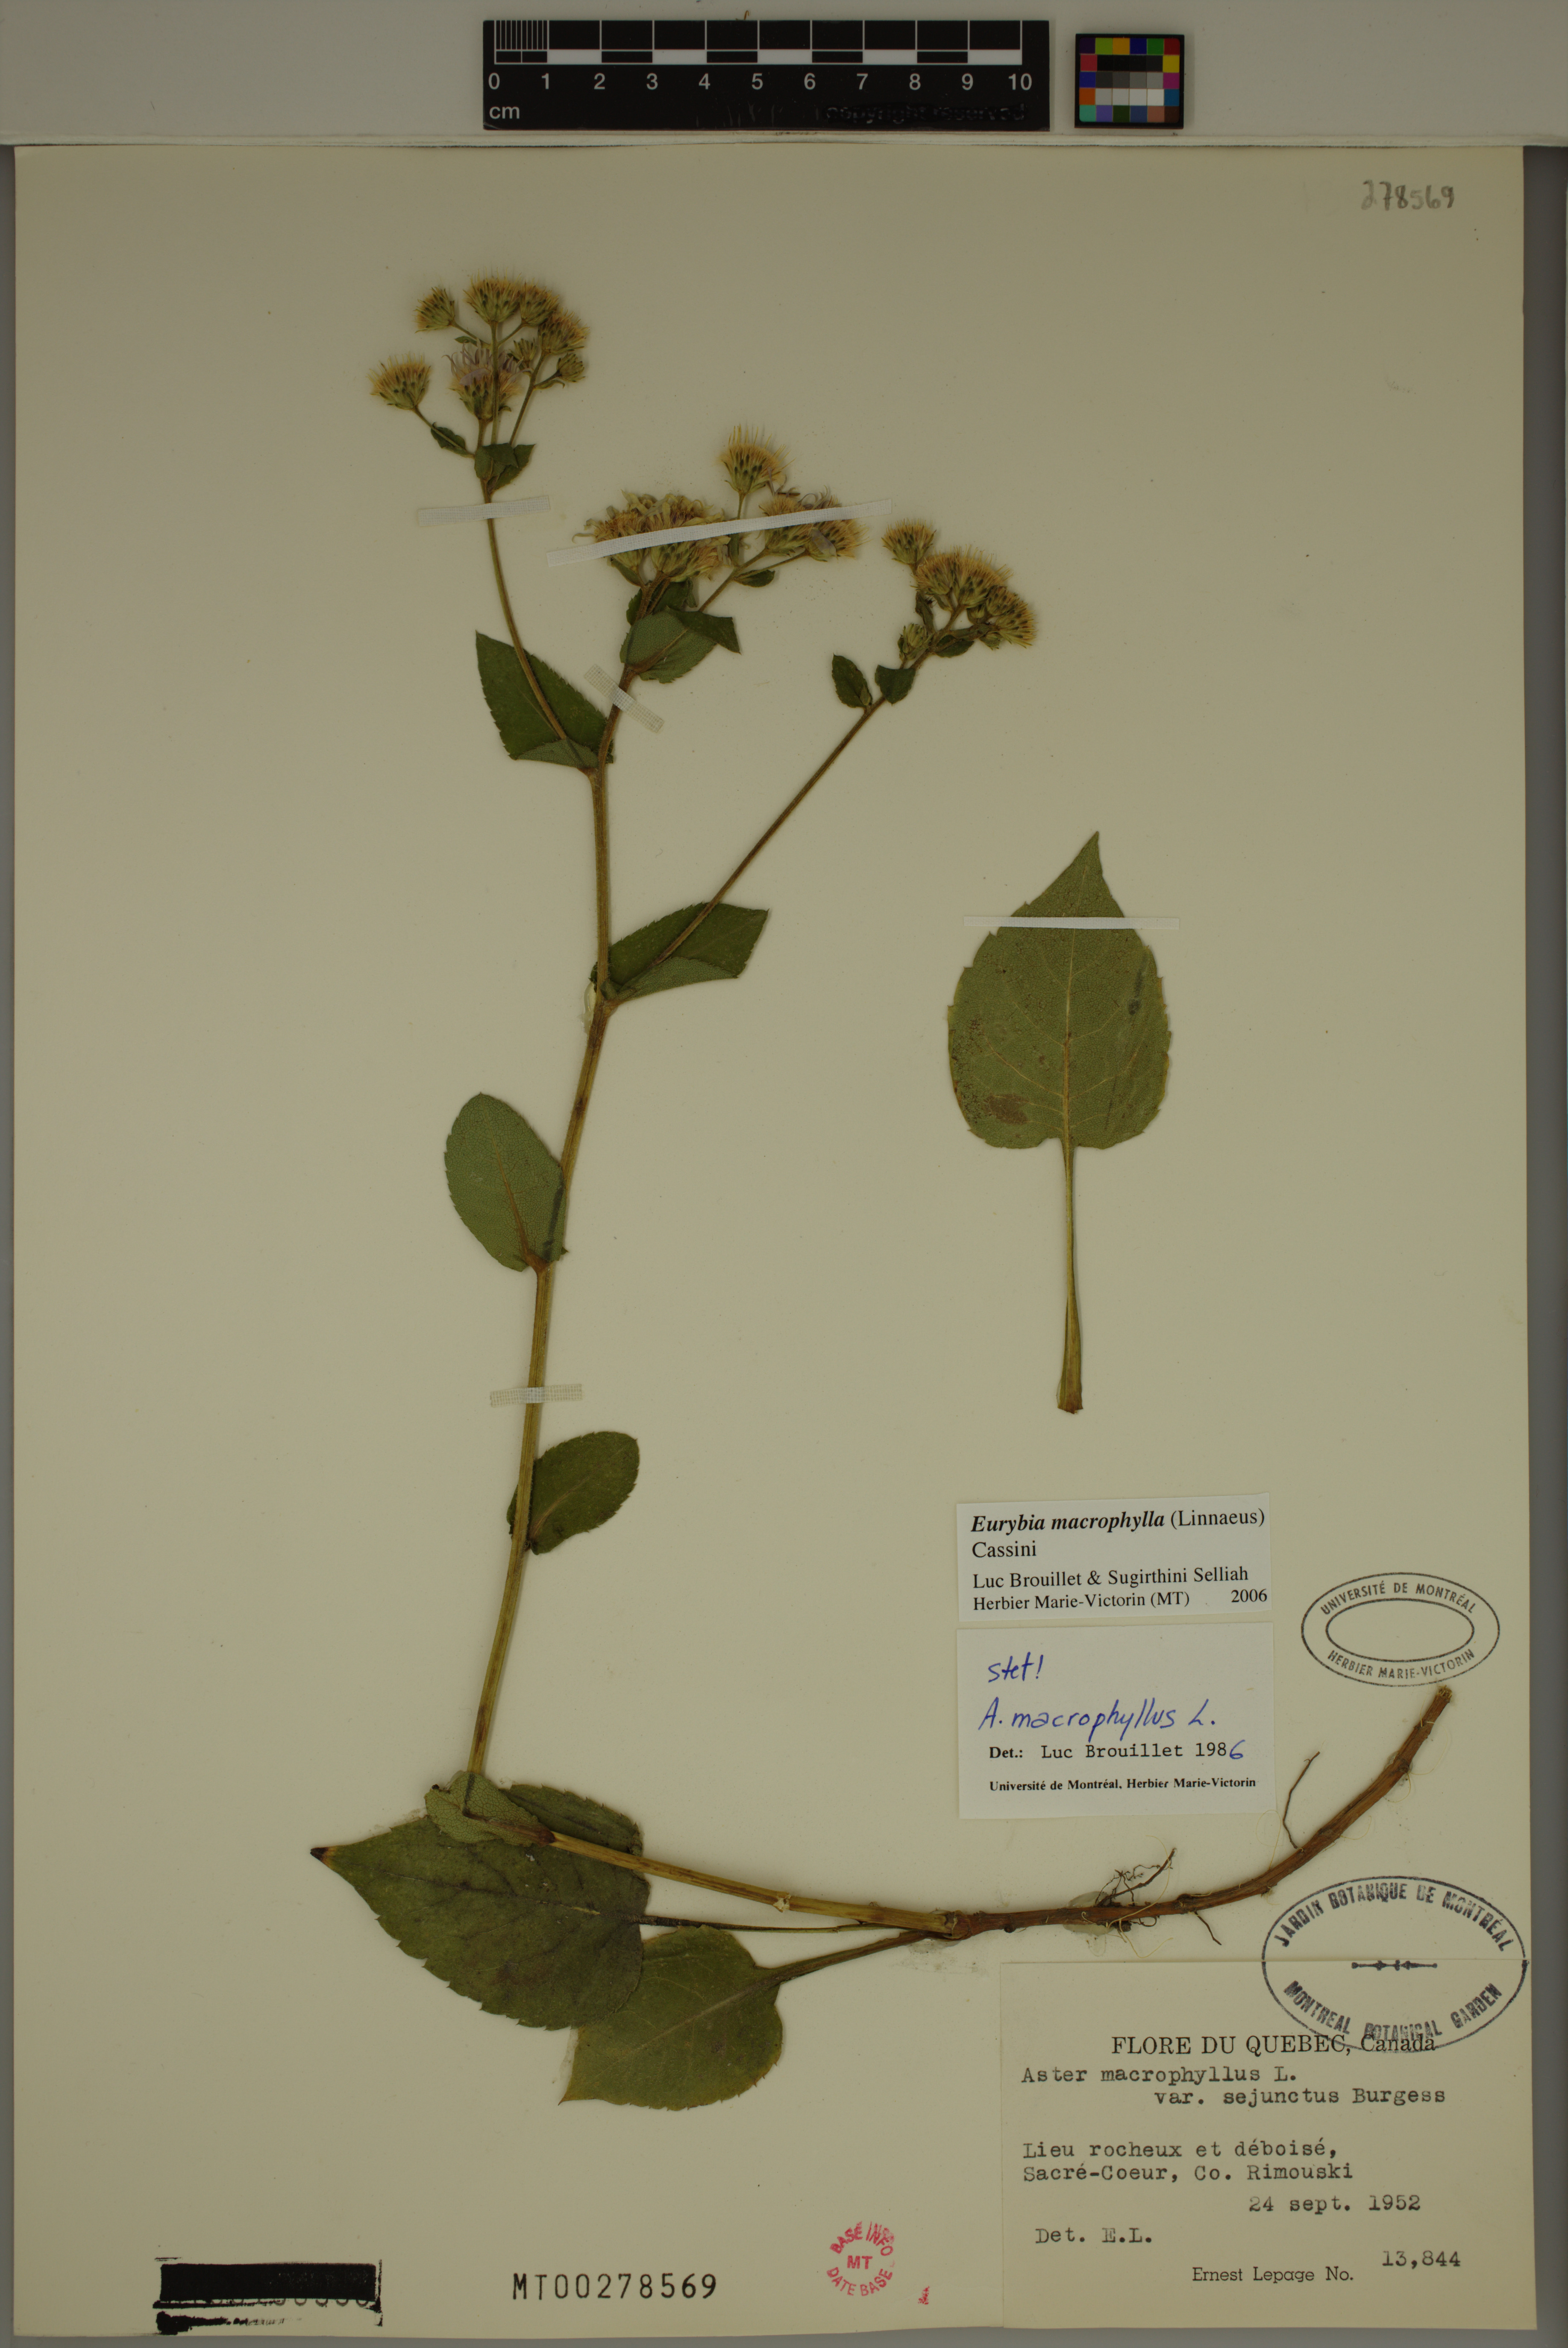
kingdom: Plantae
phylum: Tracheophyta
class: Magnoliopsida
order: Asterales
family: Asteraceae
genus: Eurybia
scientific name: Eurybia macrophylla
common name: Big-leaved aster
